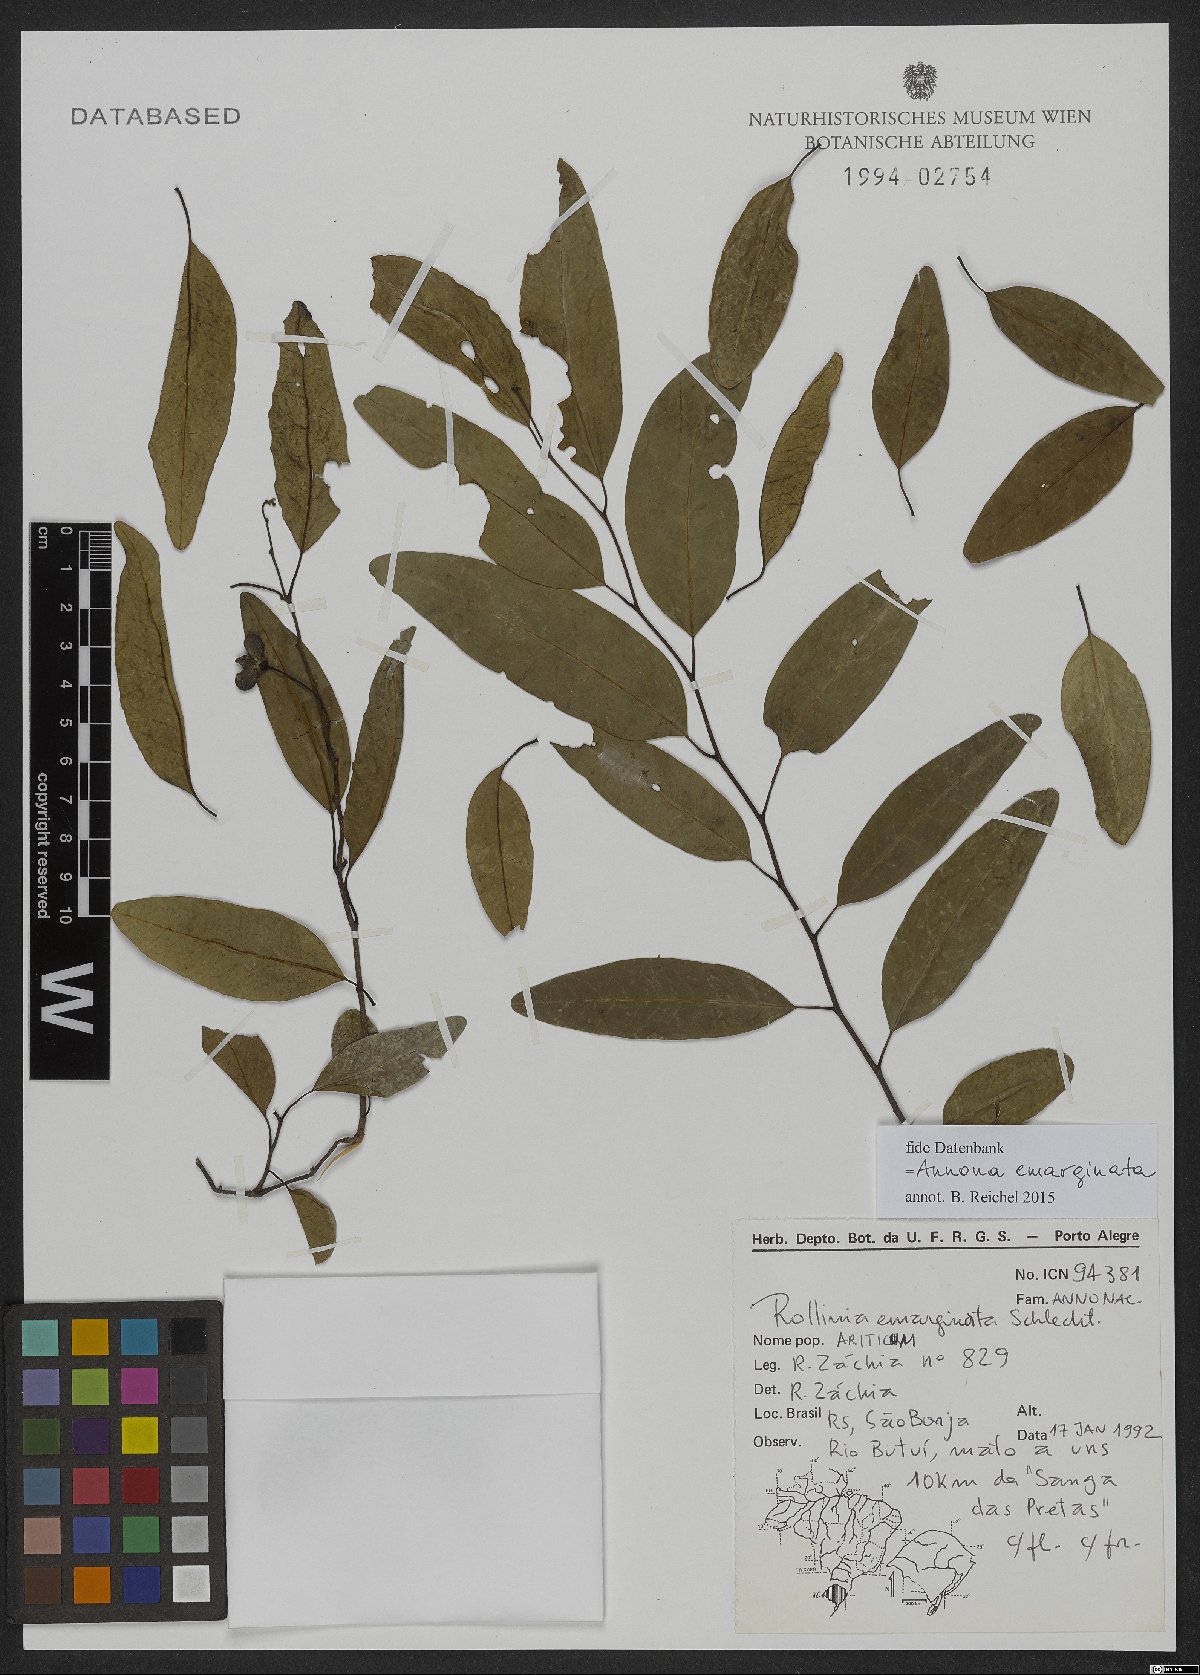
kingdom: Plantae
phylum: Tracheophyta
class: Magnoliopsida
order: Magnoliales
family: Annonaceae
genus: Annona
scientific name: Annona emarginata
